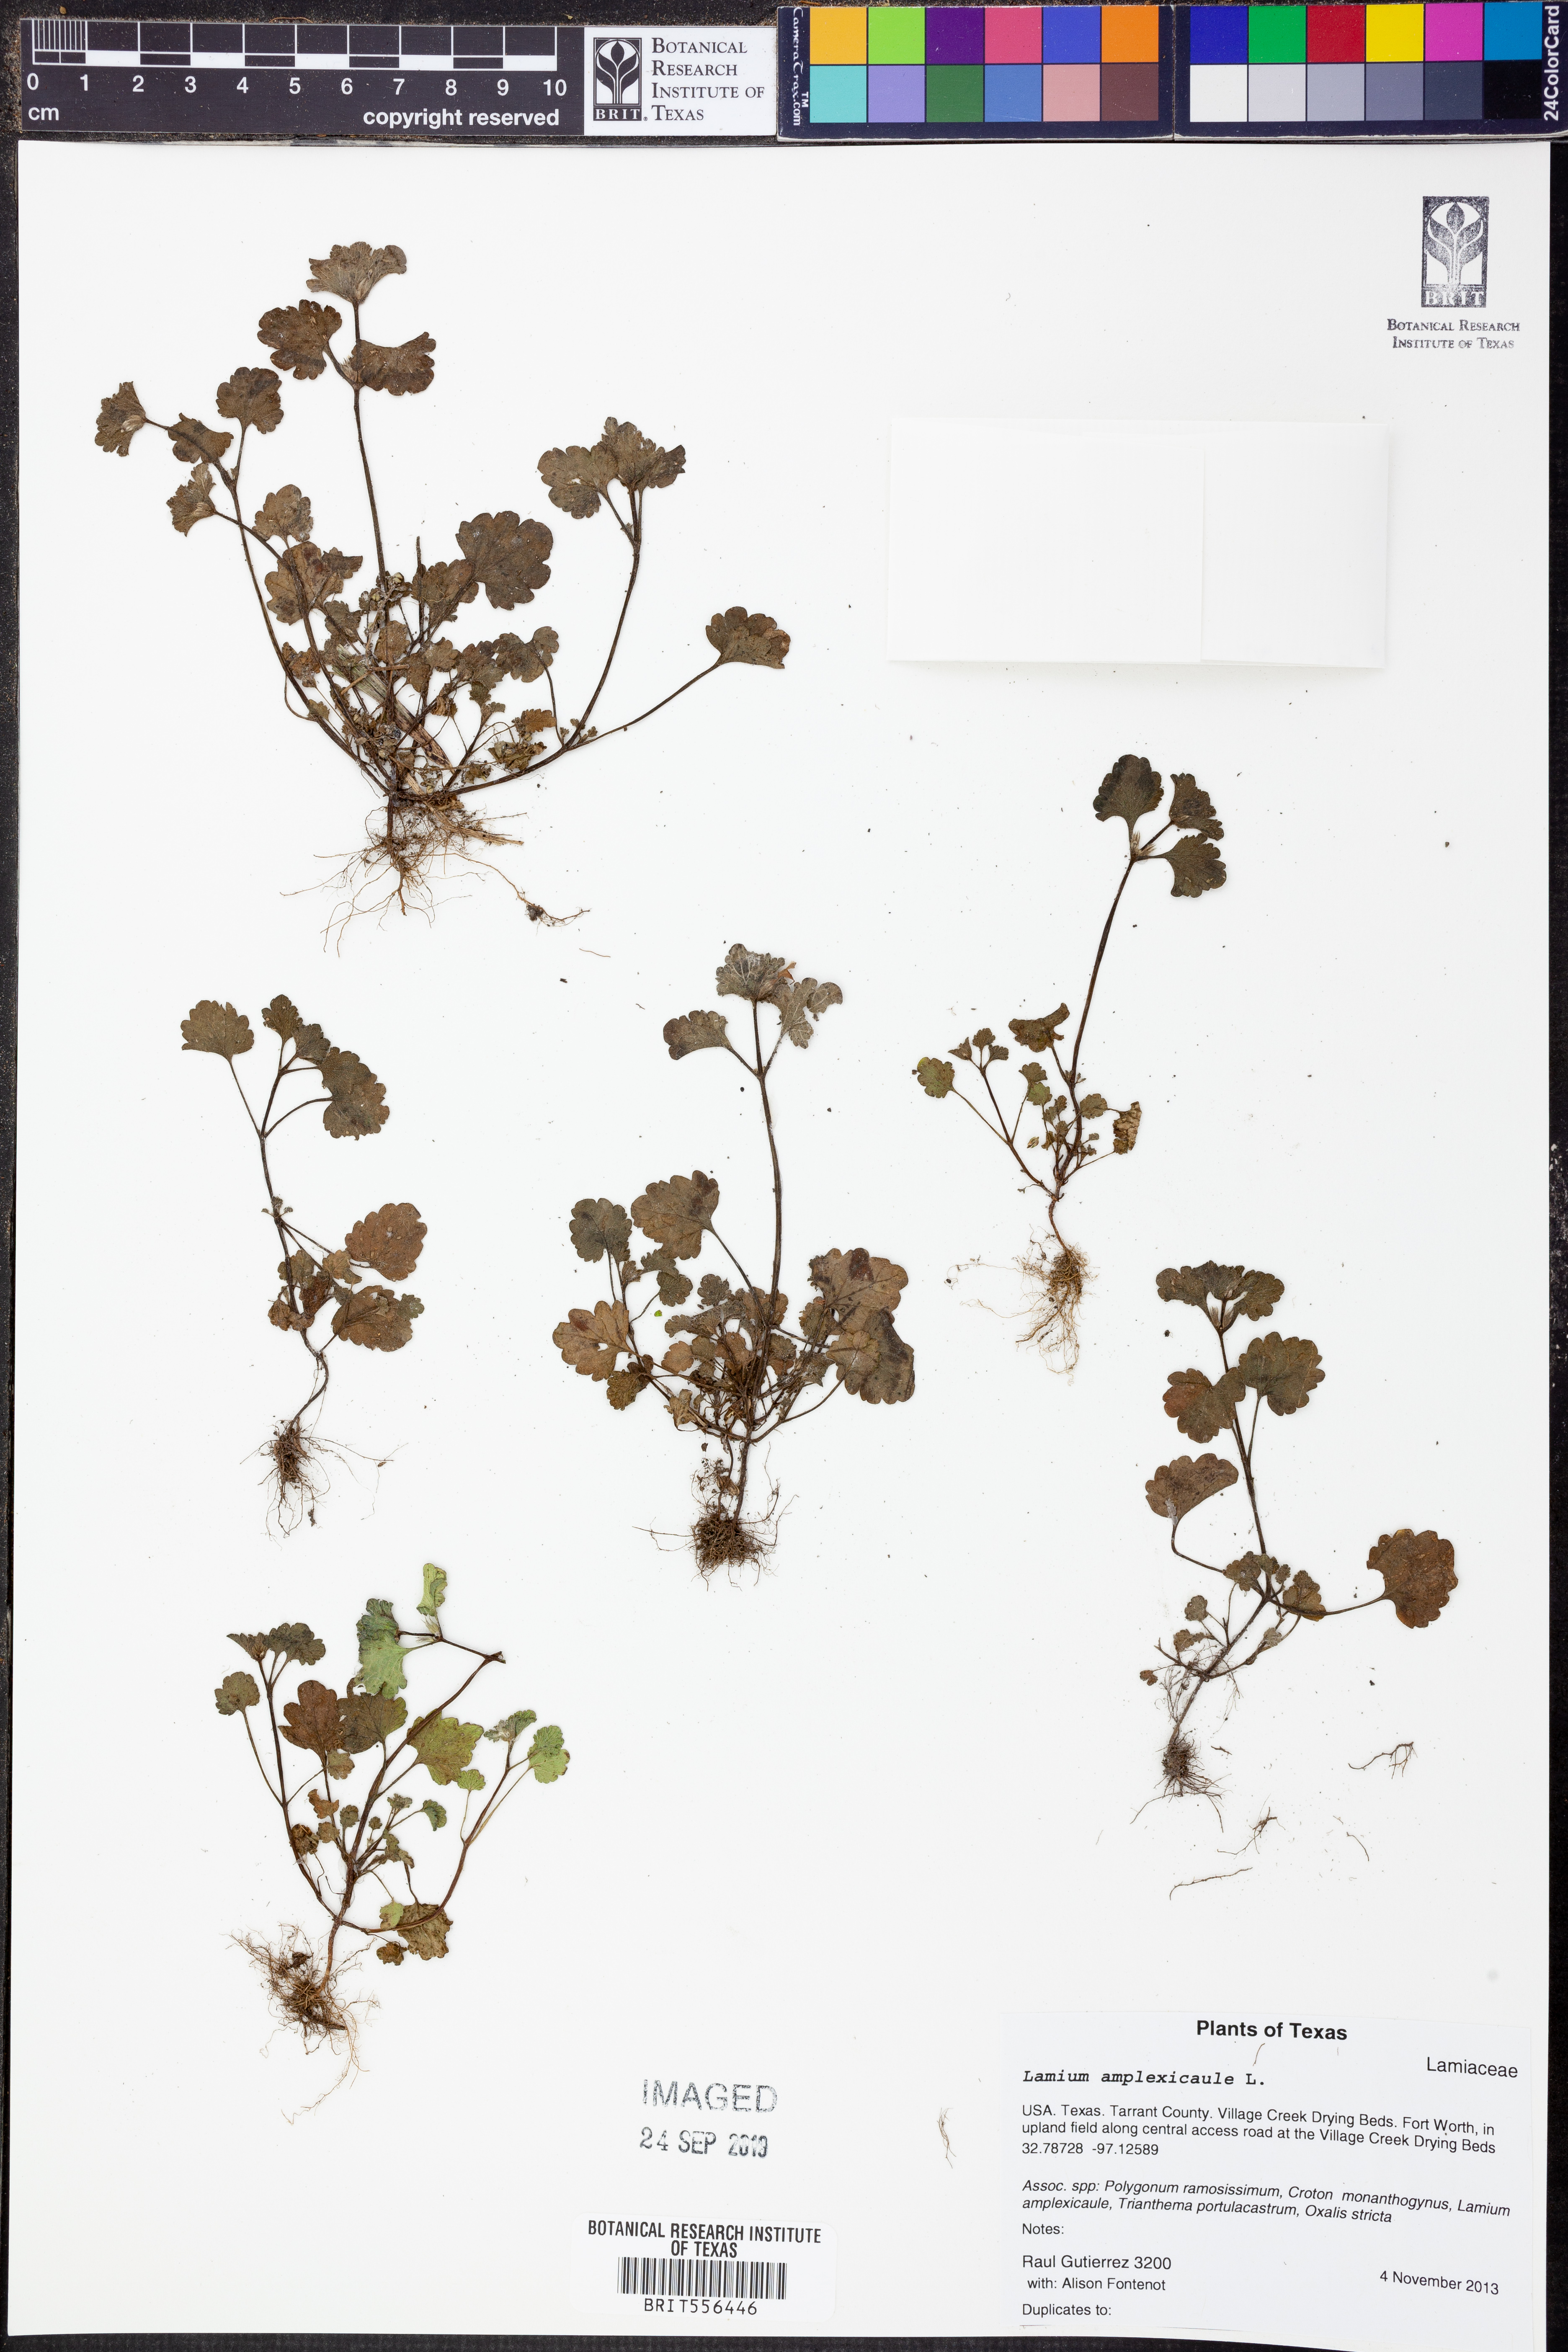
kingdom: Plantae
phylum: Tracheophyta
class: Magnoliopsida
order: Lamiales
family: Lamiaceae
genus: Lamium
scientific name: Lamium amplexicaule
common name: Henbit dead-nettle
